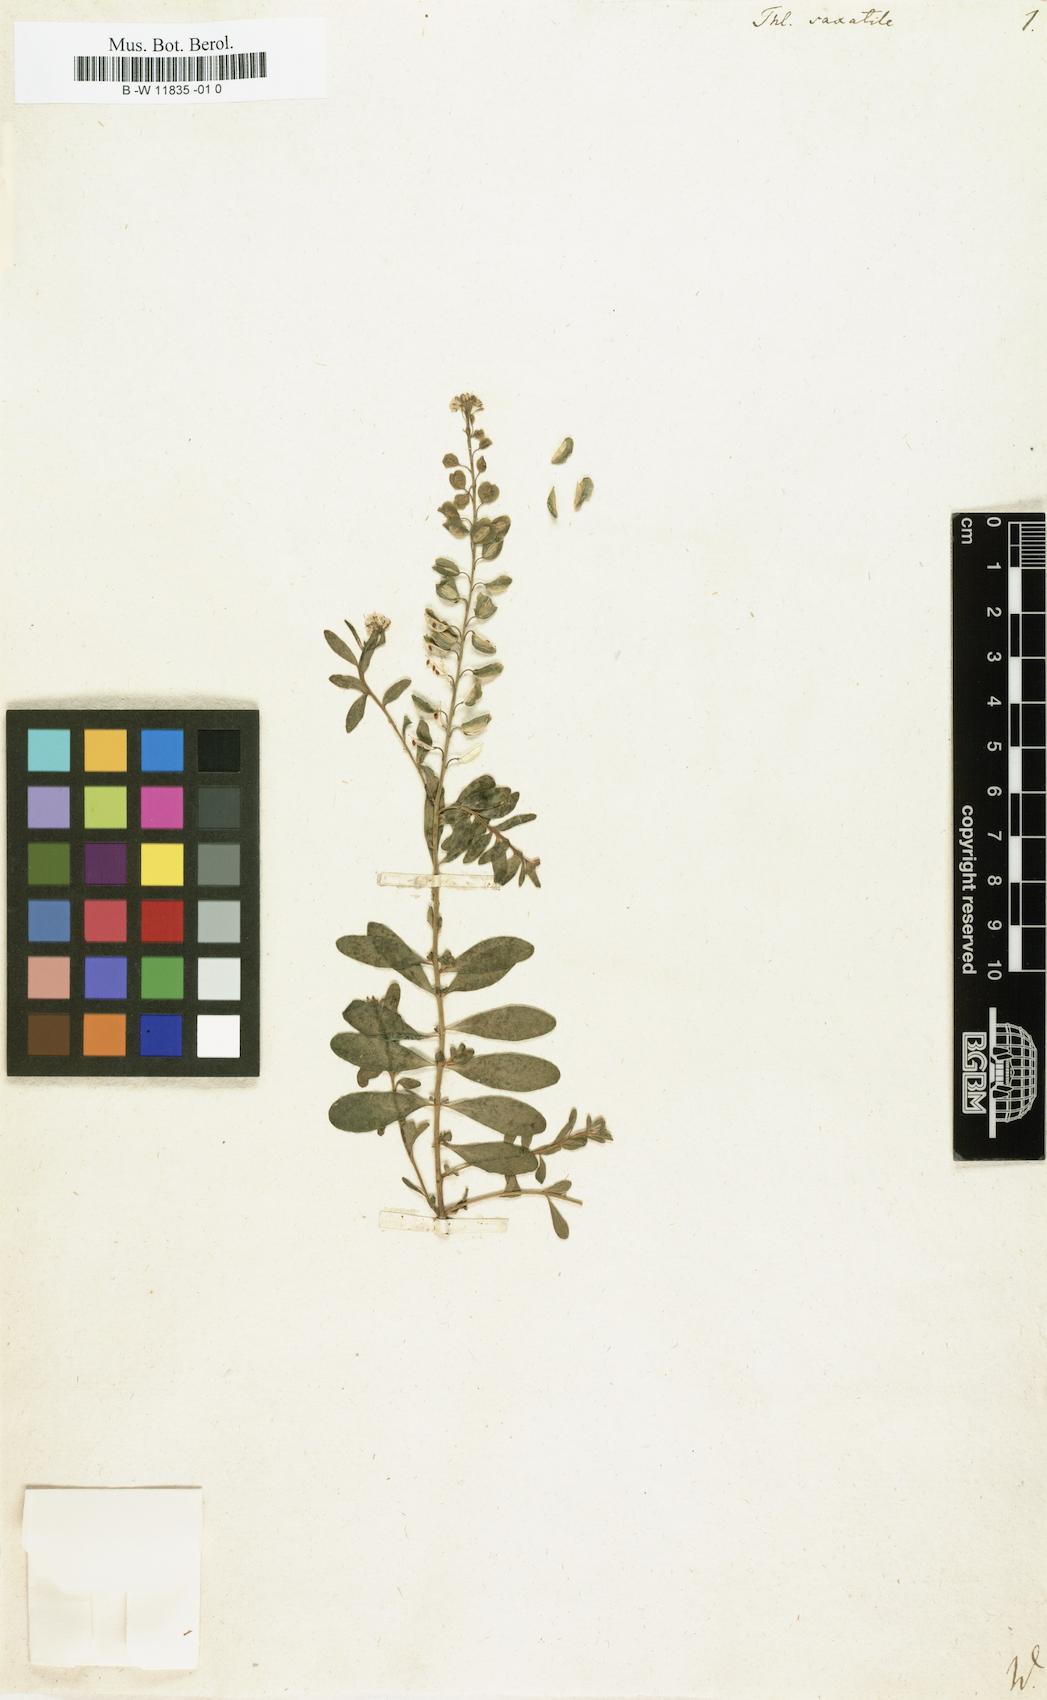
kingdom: Plantae
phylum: Tracheophyta
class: Magnoliopsida
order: Brassicales
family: Brassicaceae
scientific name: Brassicaceae
